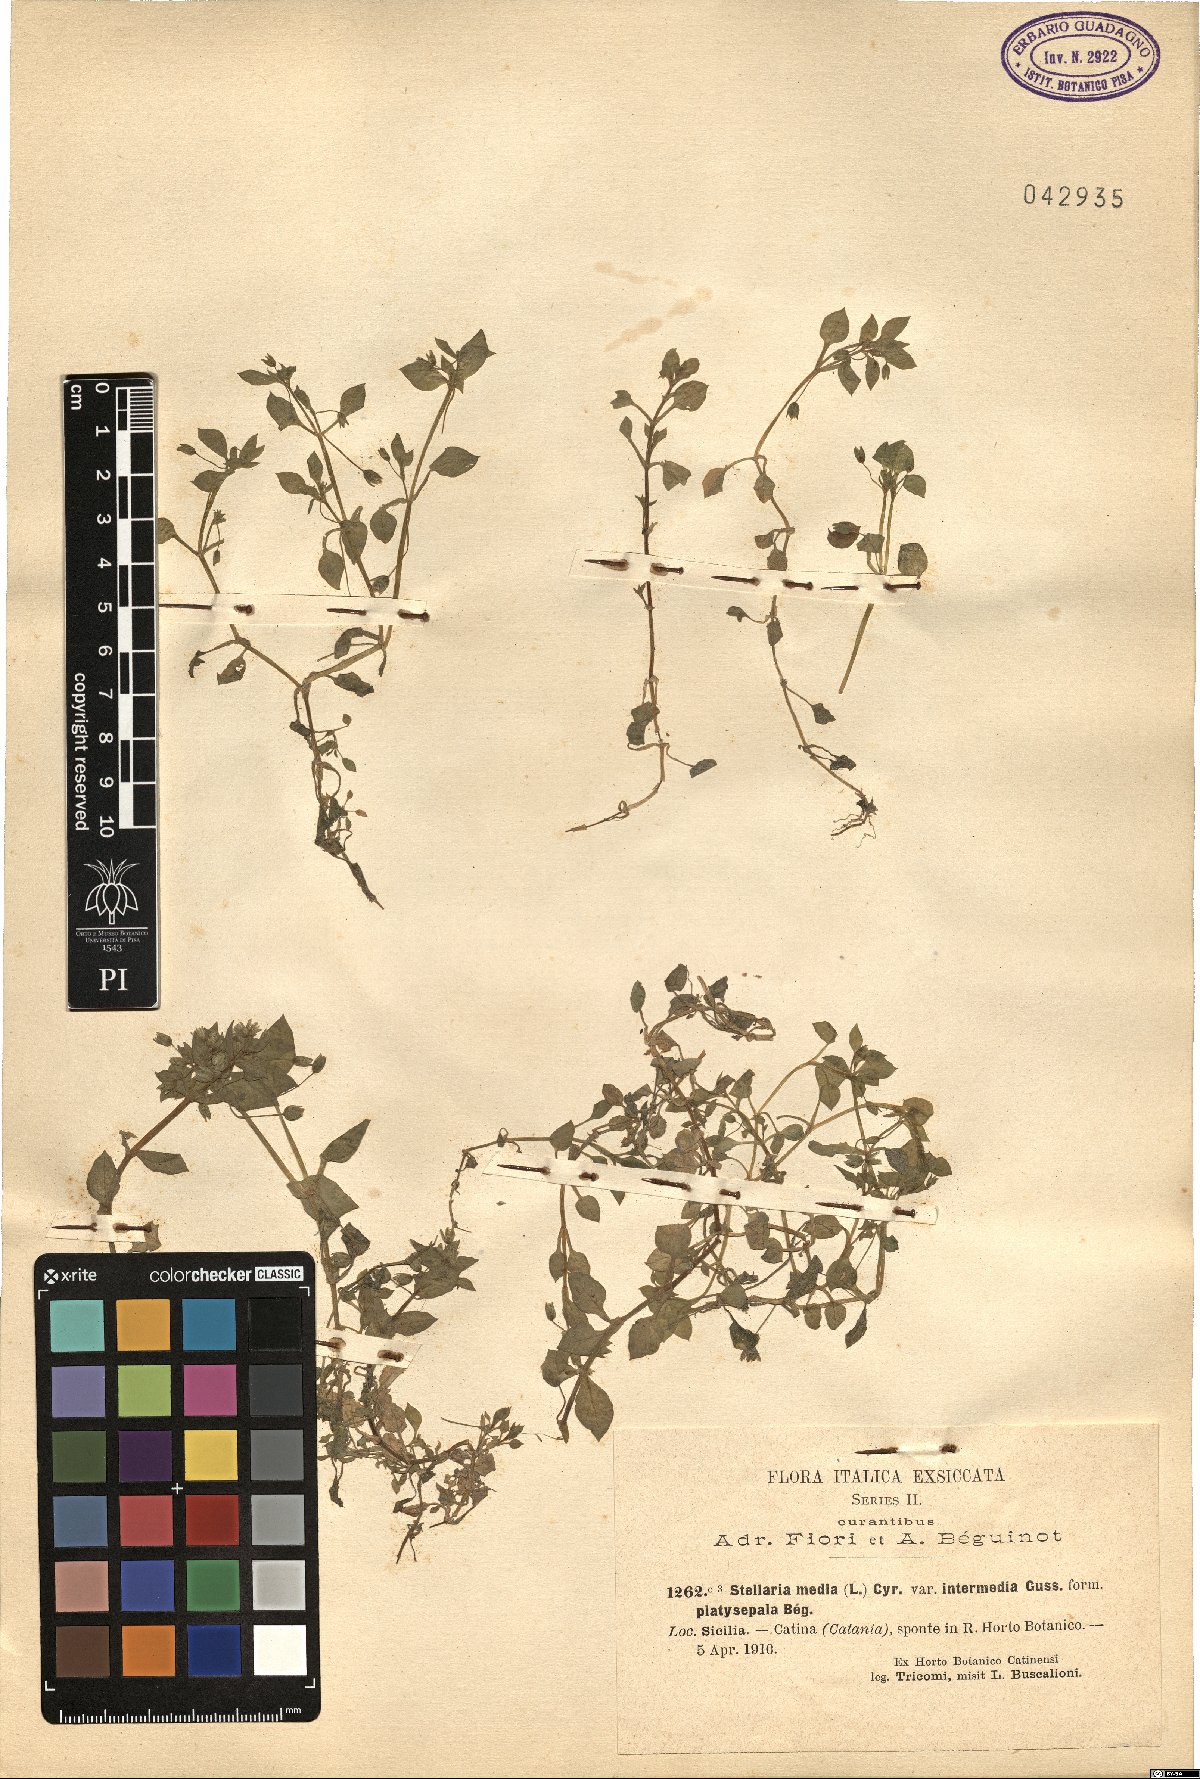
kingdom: Plantae
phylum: Tracheophyta
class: Magnoliopsida
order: Caryophyllales
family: Caryophyllaceae
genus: Stellaria
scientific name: Stellaria media
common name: Common chickweed
